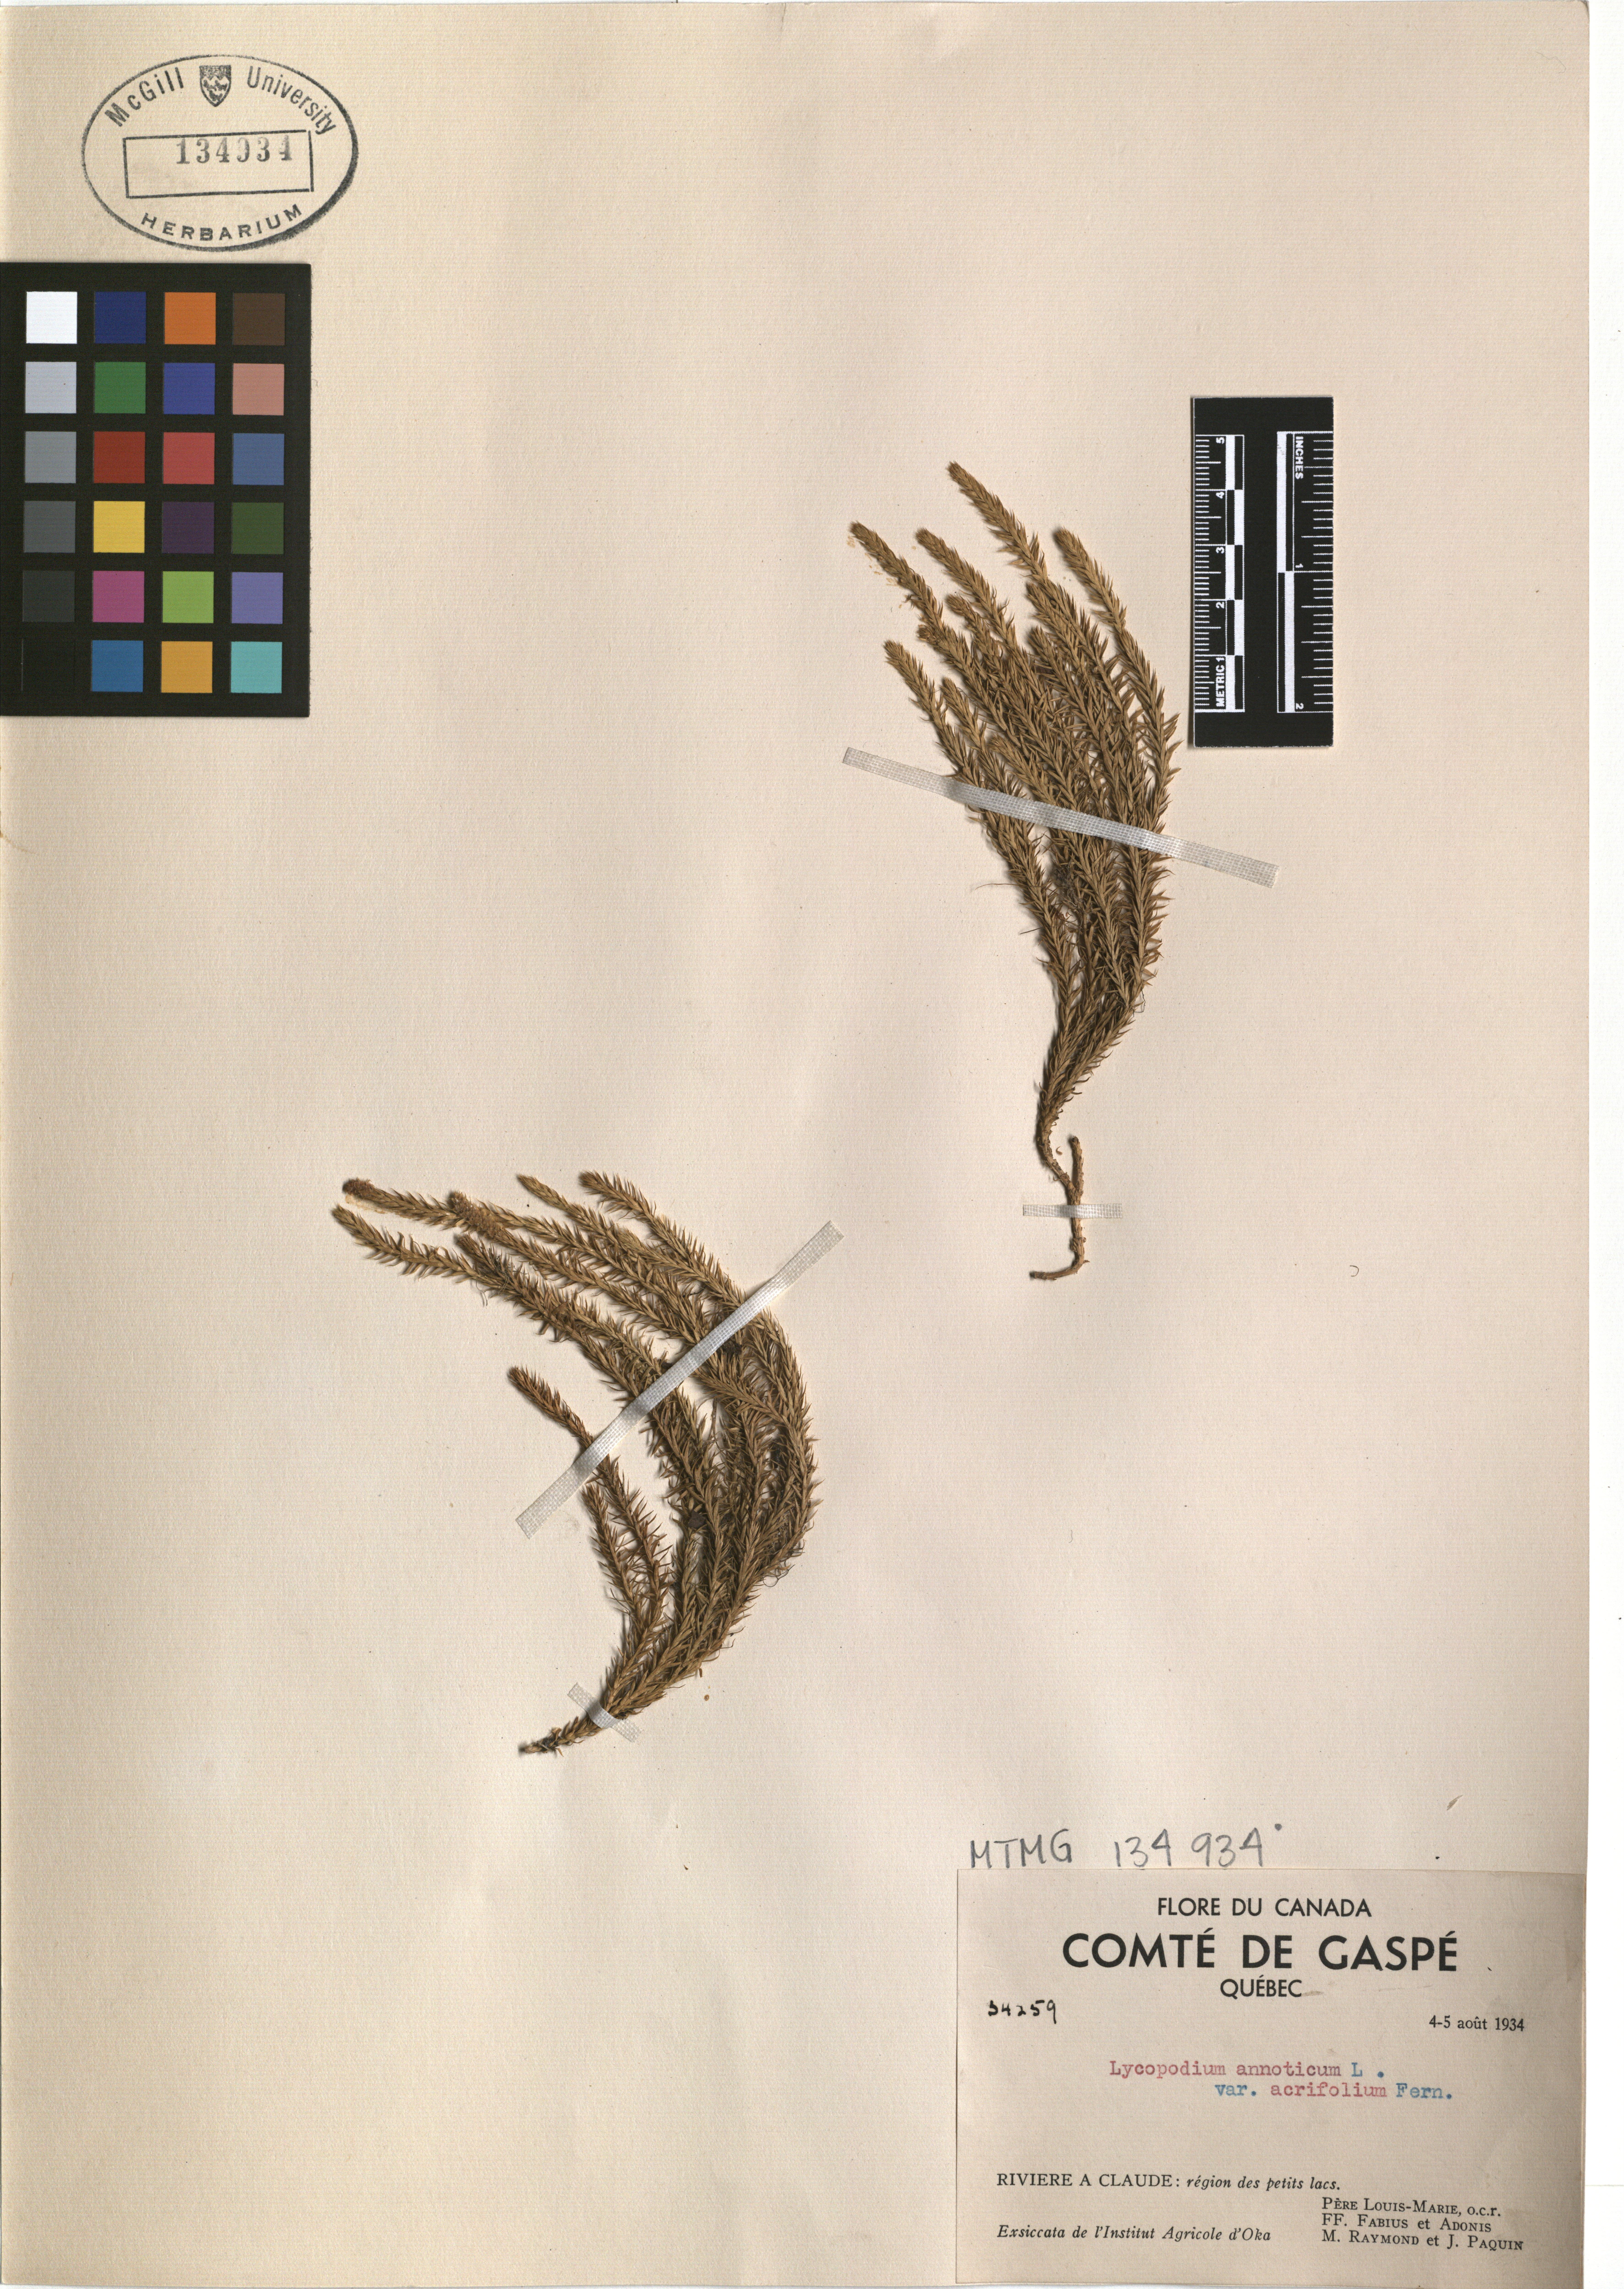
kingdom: Plantae
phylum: Tracheophyta
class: Lycopodiopsida
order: Lycopodiales
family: Lycopodiaceae
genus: Spinulum
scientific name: Spinulum annotinum
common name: Interrupted club-moss
